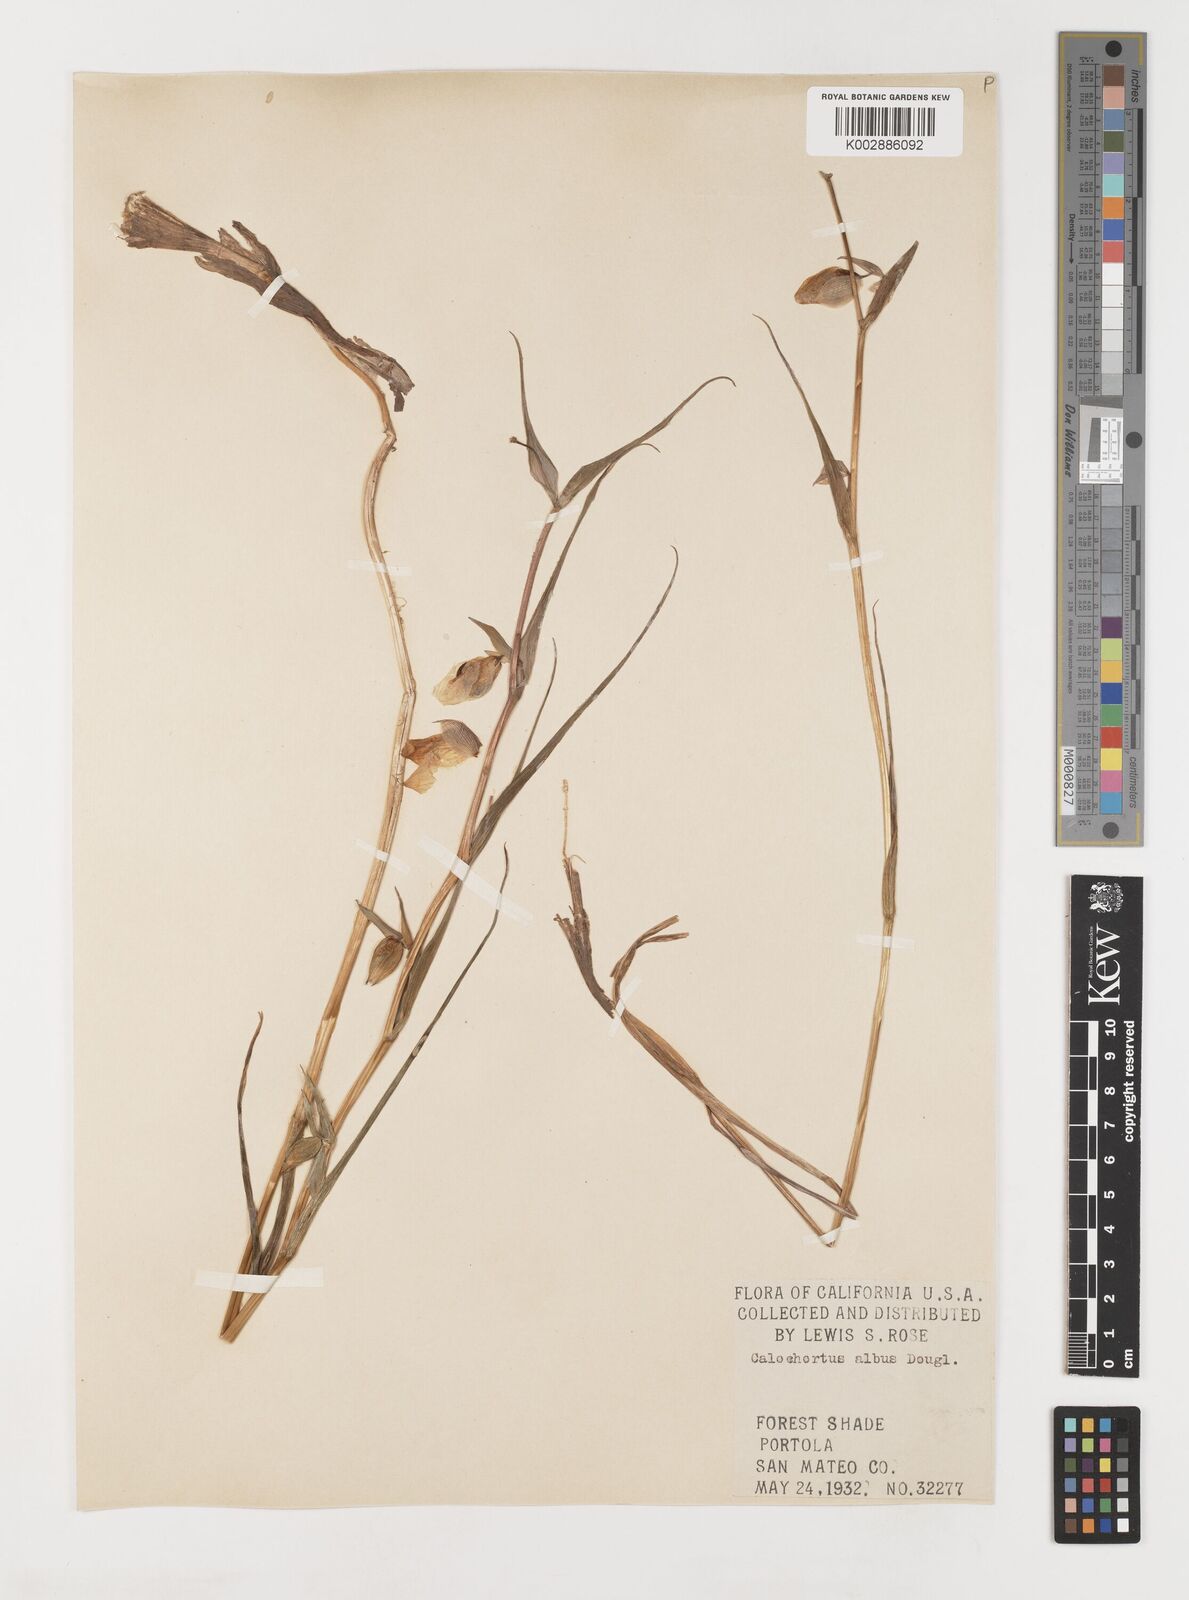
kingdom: Plantae
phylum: Tracheophyta
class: Liliopsida
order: Liliales
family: Liliaceae
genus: Calochortus
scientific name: Calochortus albus
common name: Fairy-lantern
